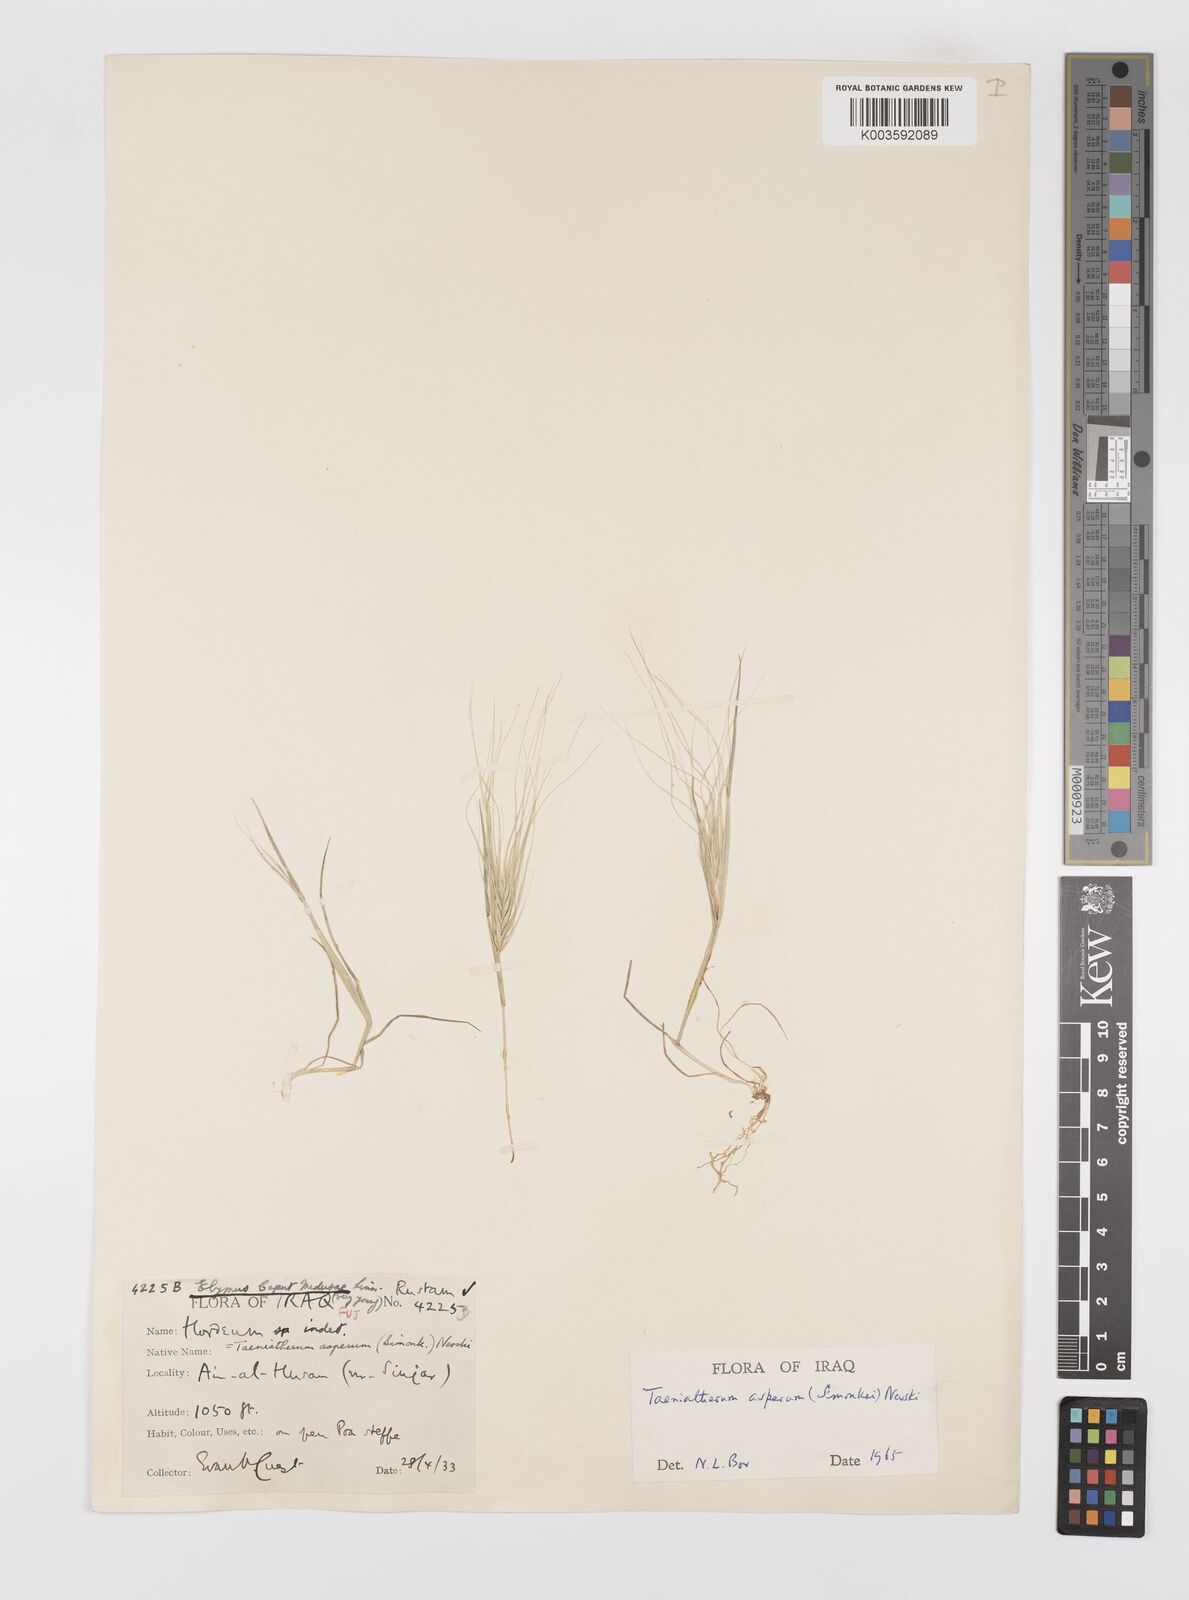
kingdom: Plantae
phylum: Tracheophyta
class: Liliopsida
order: Poales
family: Poaceae
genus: Taeniatherum
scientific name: Taeniatherum caput-medusae
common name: Medusahead
